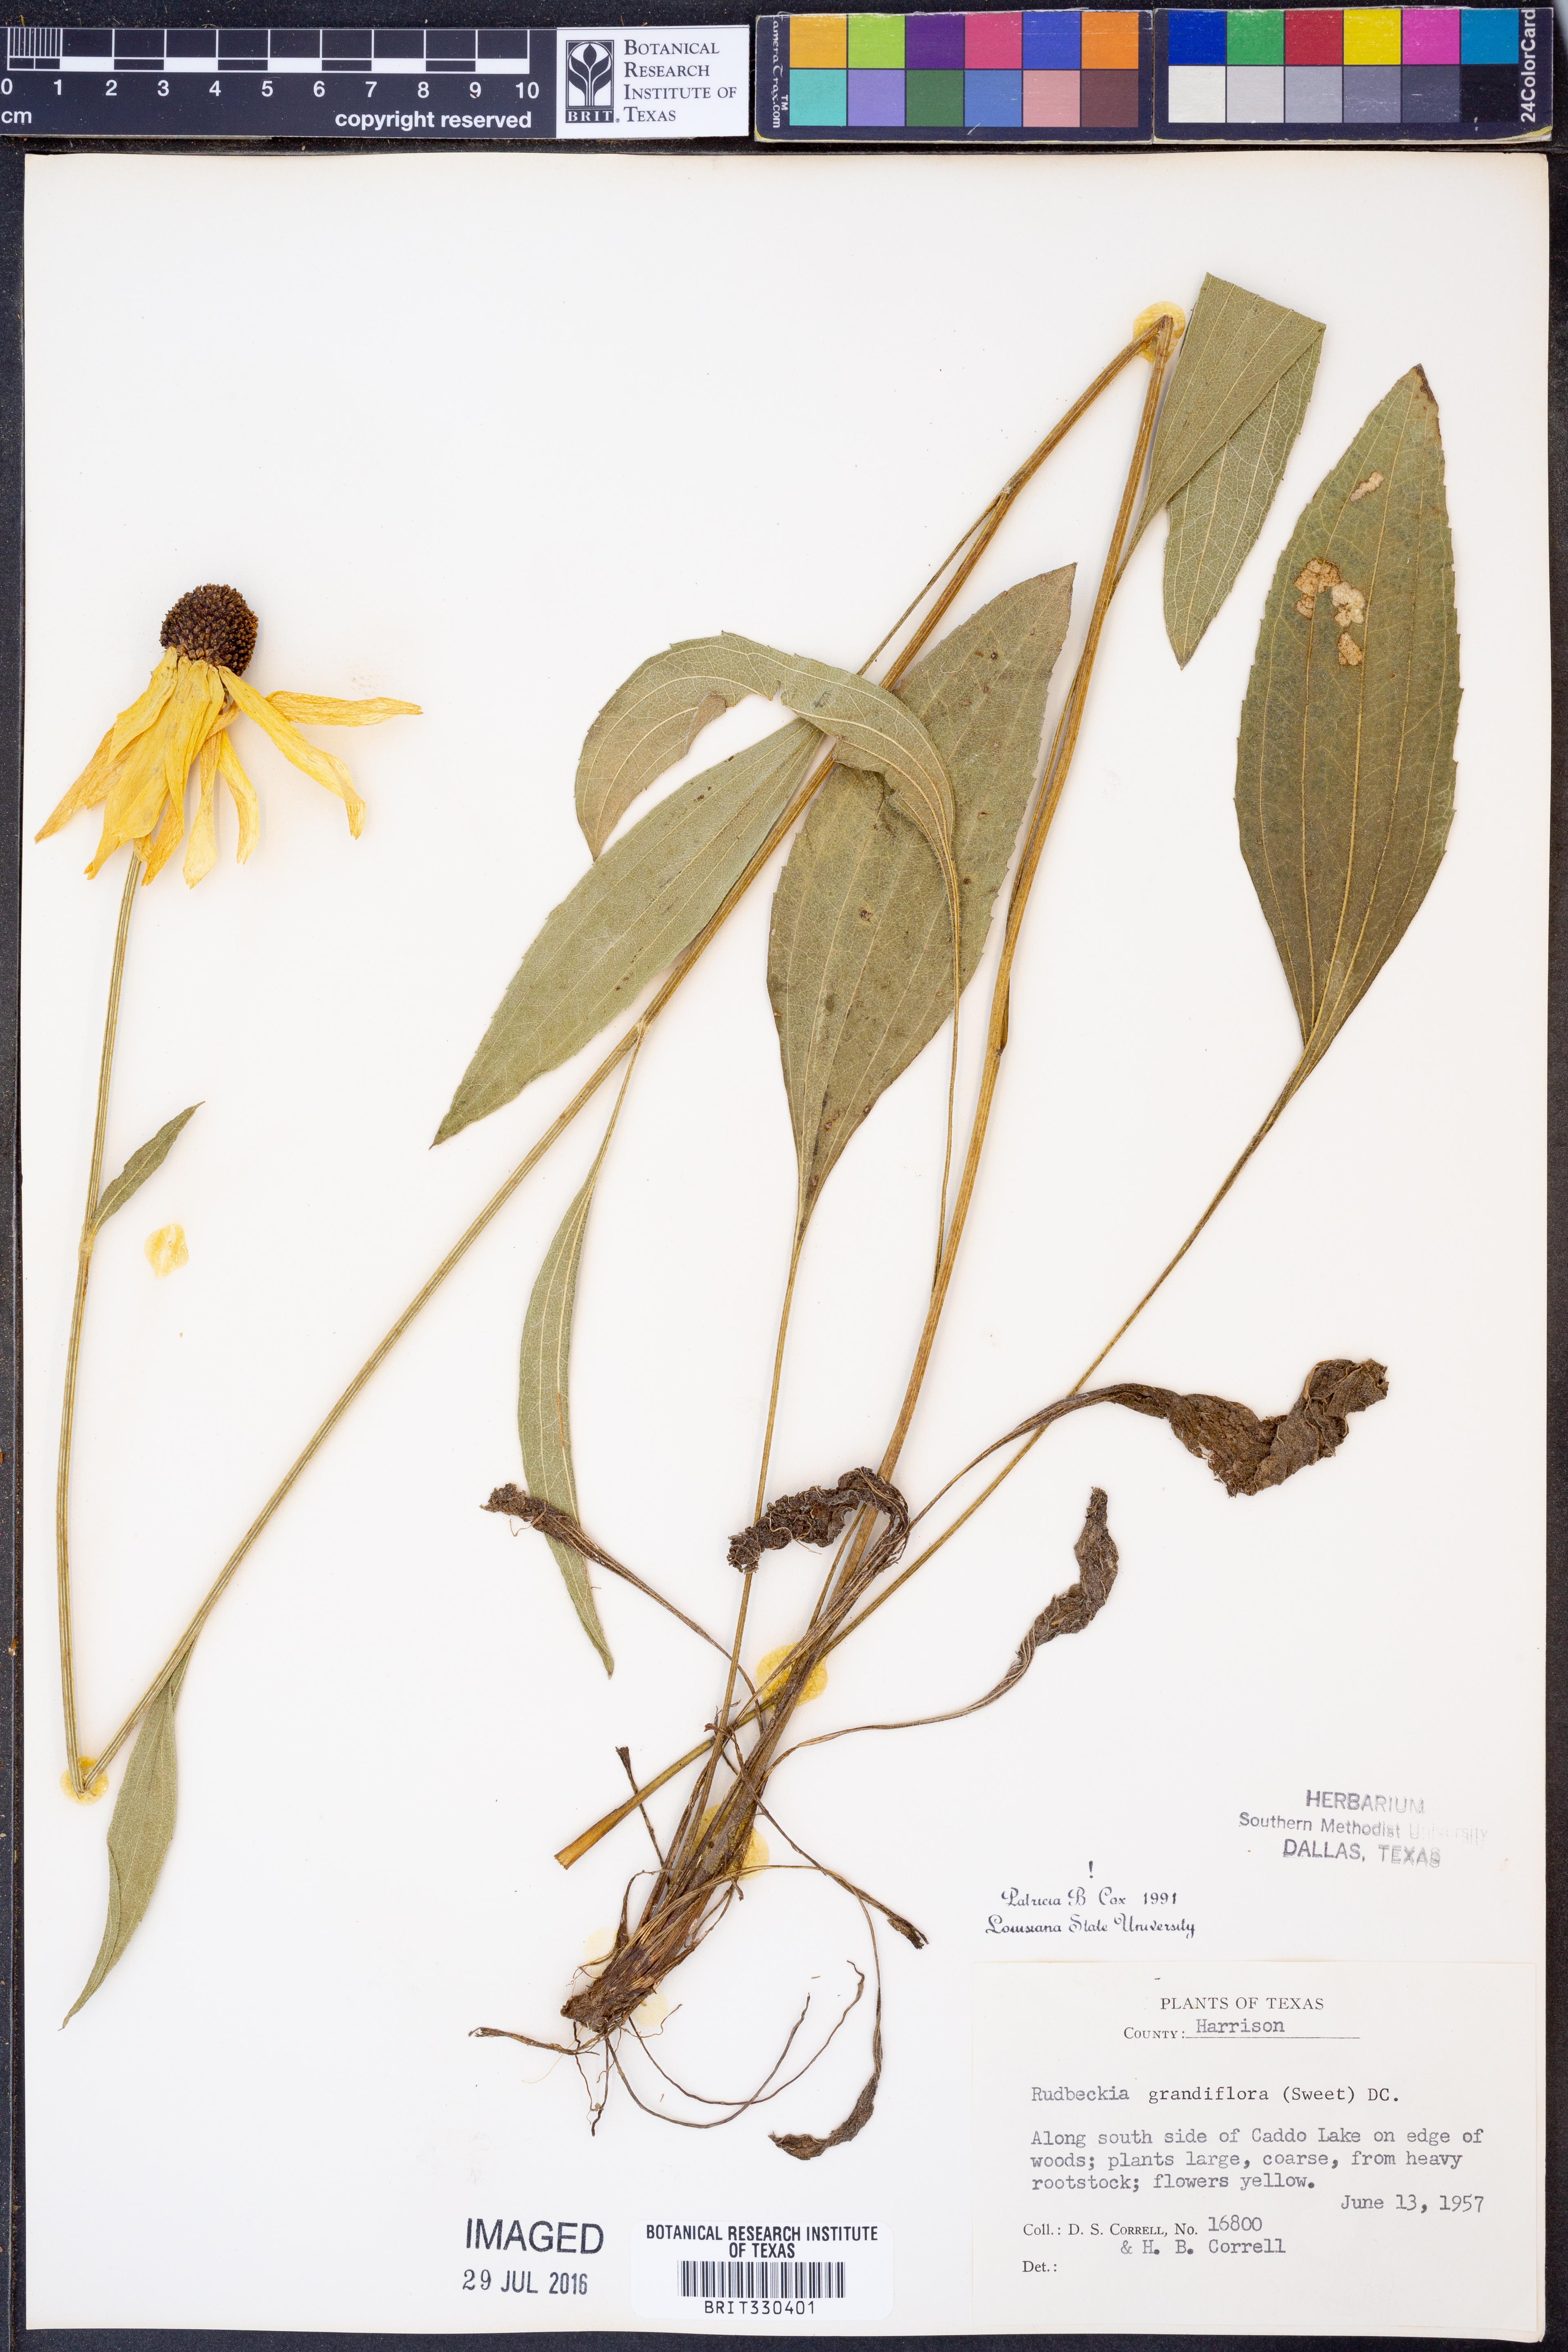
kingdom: Plantae
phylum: Tracheophyta
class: Magnoliopsida
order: Asterales
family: Asteraceae
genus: Rudbeckia
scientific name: Rudbeckia grandiflora
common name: Large-flowered coneflower
